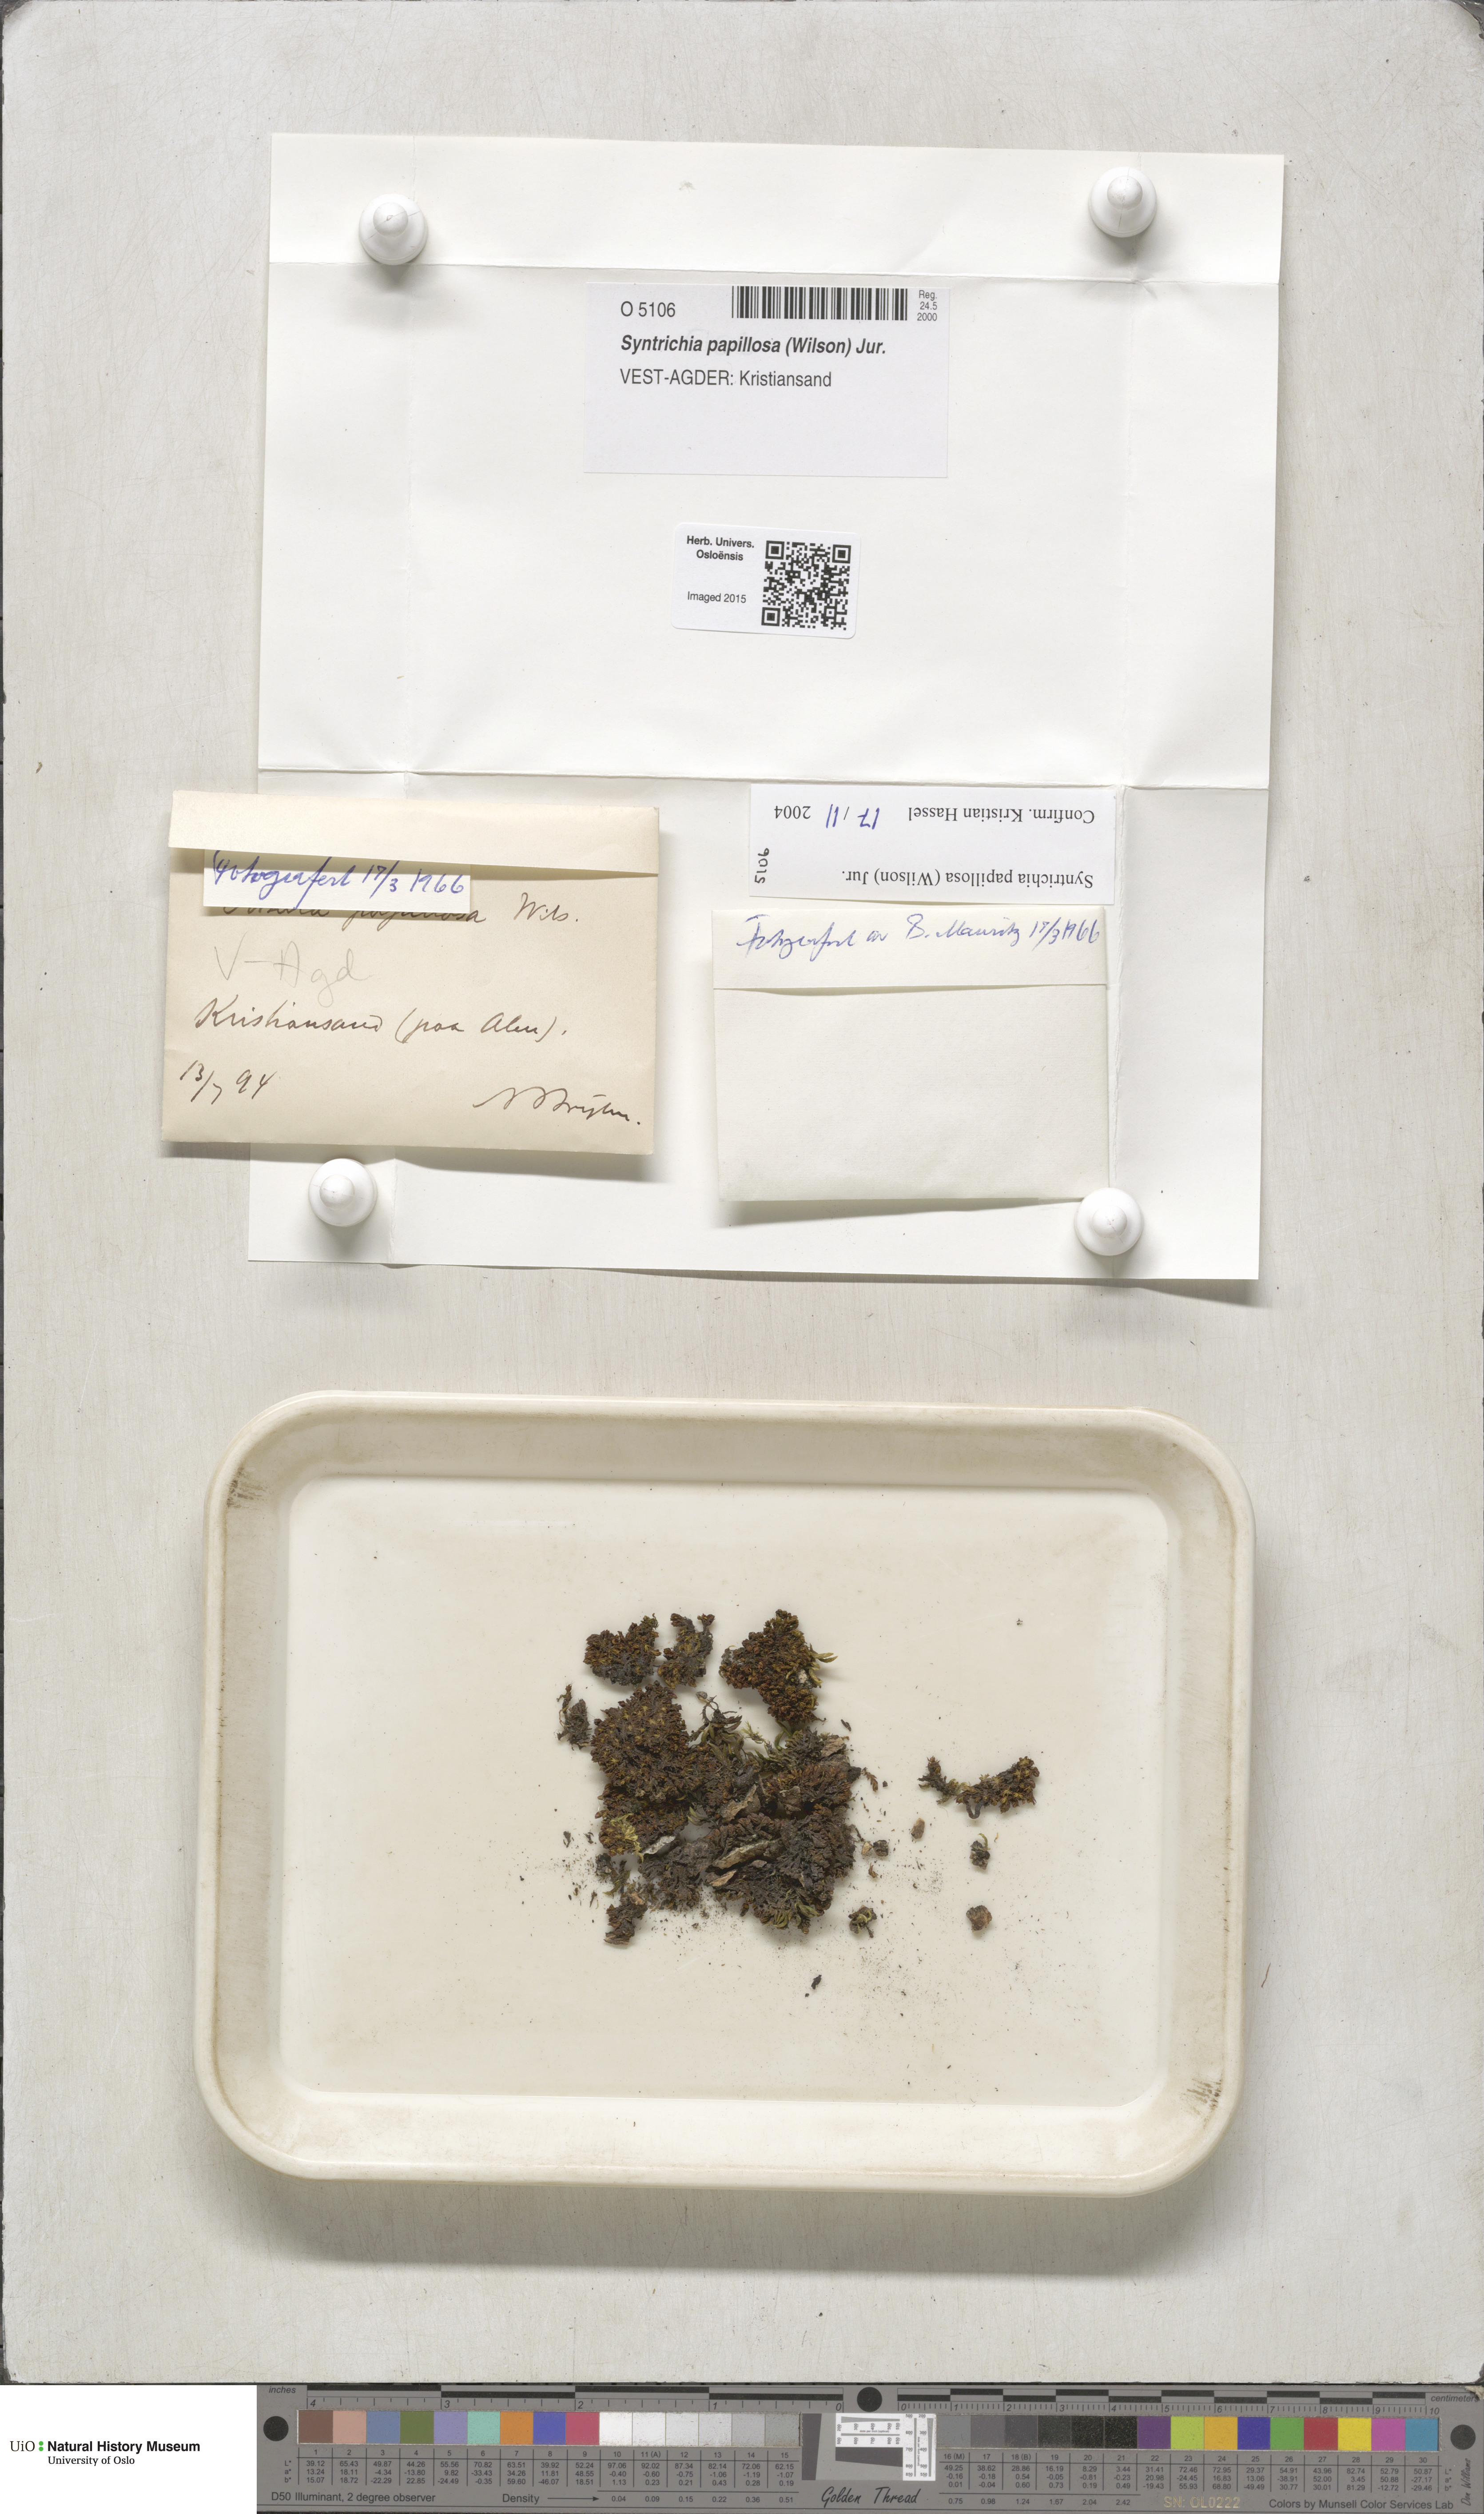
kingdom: Plantae
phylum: Bryophyta
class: Bryopsida
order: Pottiales
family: Pottiaceae
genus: Syntrichia
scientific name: Syntrichia papillosa
